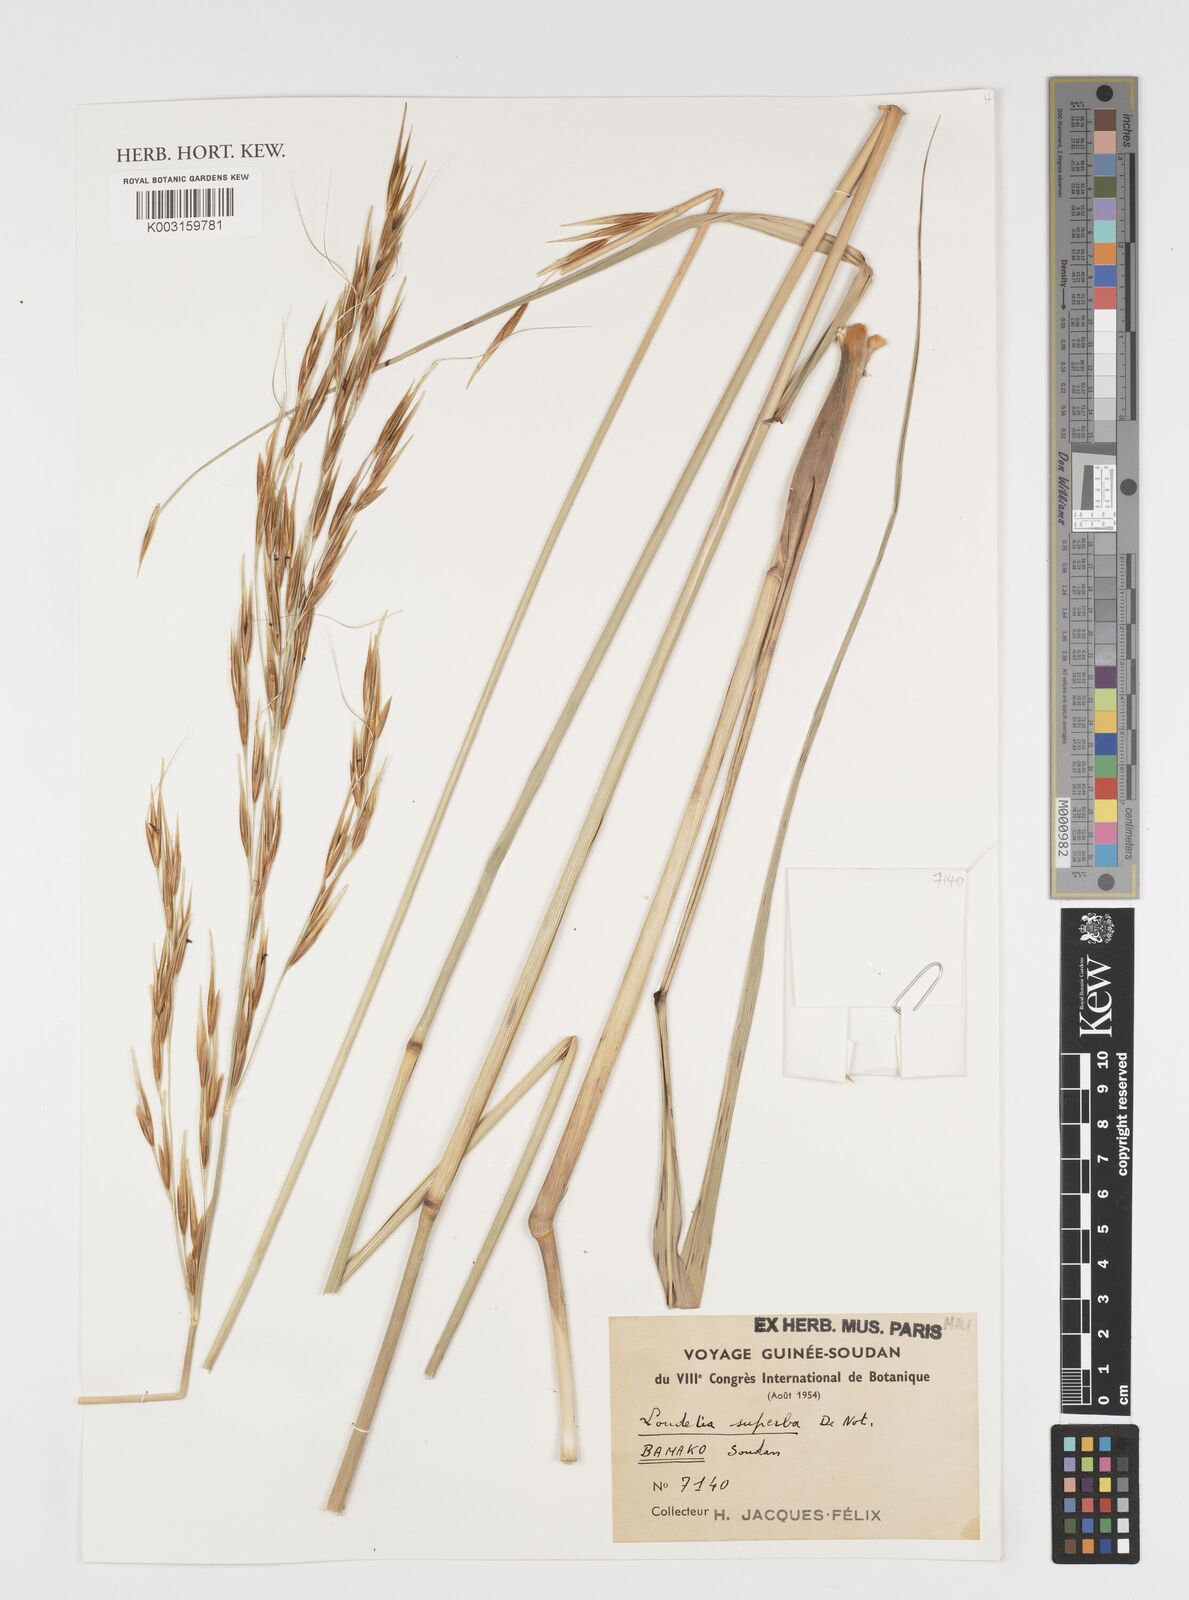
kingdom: Plantae
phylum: Tracheophyta
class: Liliopsida
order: Poales
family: Poaceae
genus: Tristachya
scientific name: Tristachya superba
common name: Giant trident grass
